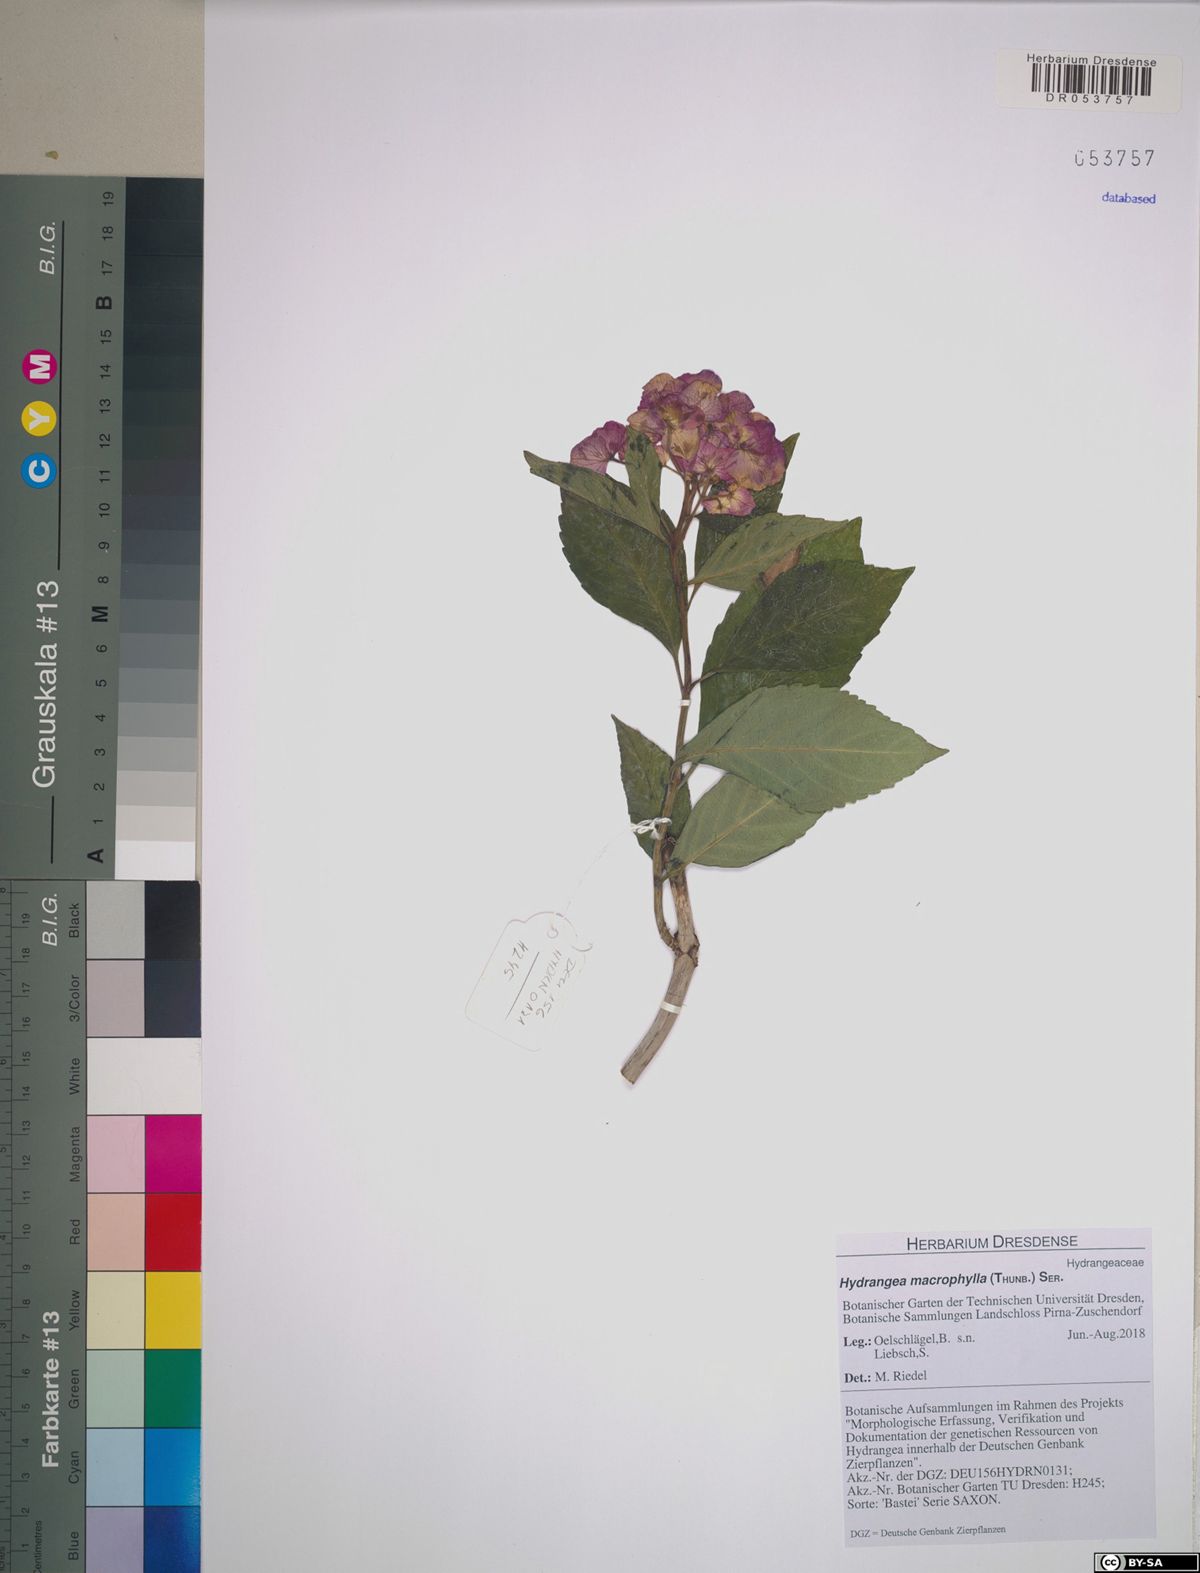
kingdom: Plantae
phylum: Tracheophyta
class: Magnoliopsida
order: Cornales
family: Hydrangeaceae
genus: Hydrangea
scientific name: Hydrangea macrophylla
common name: Hydrangea
